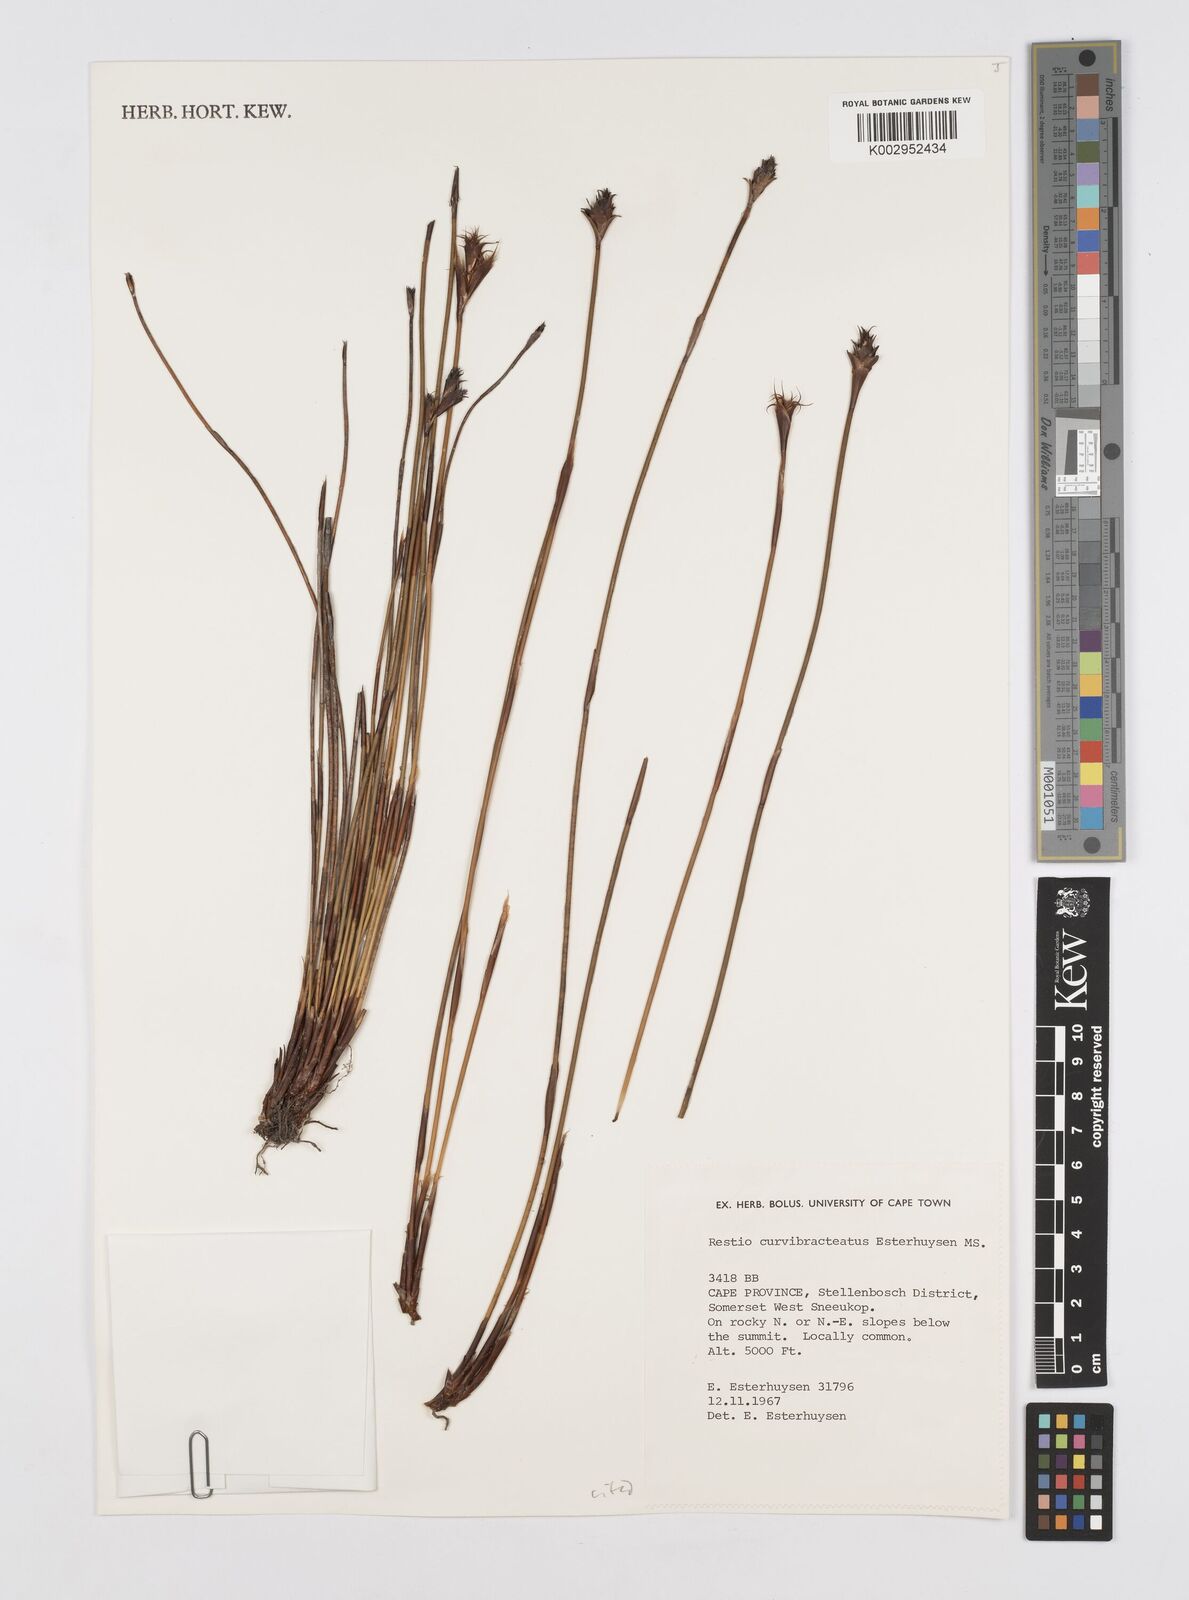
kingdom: Plantae
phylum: Tracheophyta
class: Liliopsida
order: Poales
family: Restionaceae
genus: Restio
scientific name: Restio curvibracteatus
